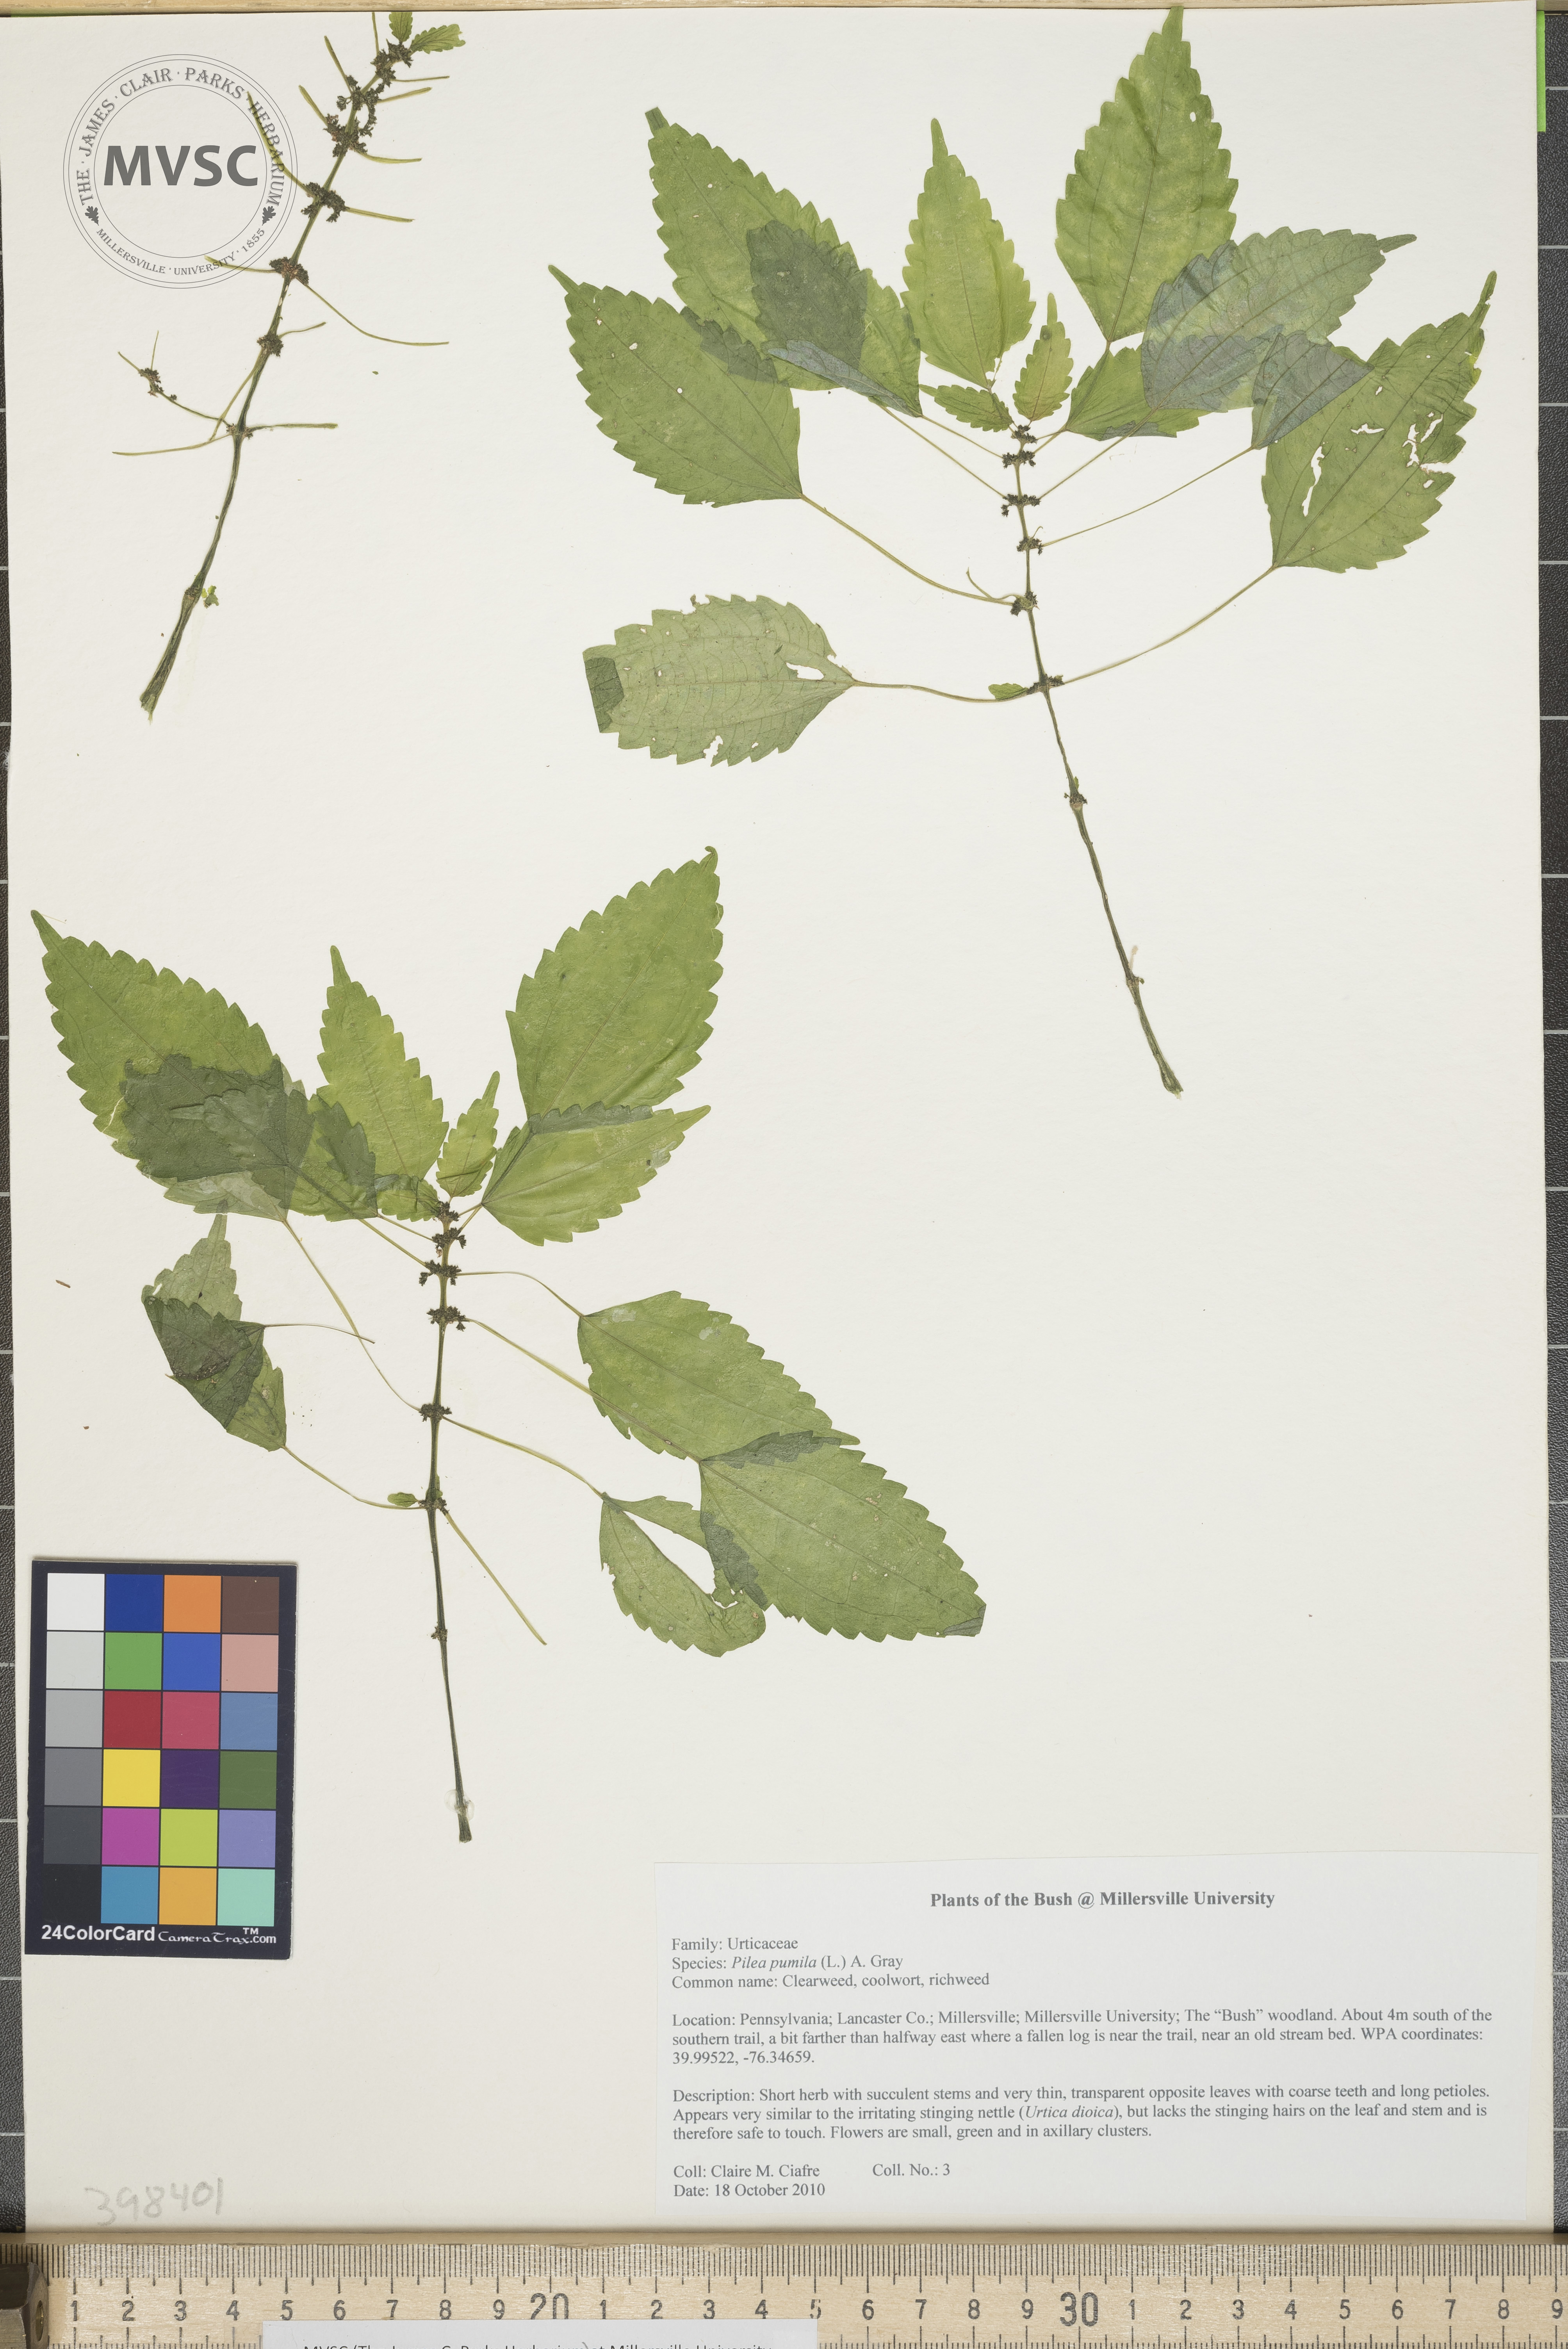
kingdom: Plantae
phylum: Tracheophyta
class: Magnoliopsida
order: Rosales
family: Urticaceae
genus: Pilea
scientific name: Pilea pumila
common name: Clearweed
